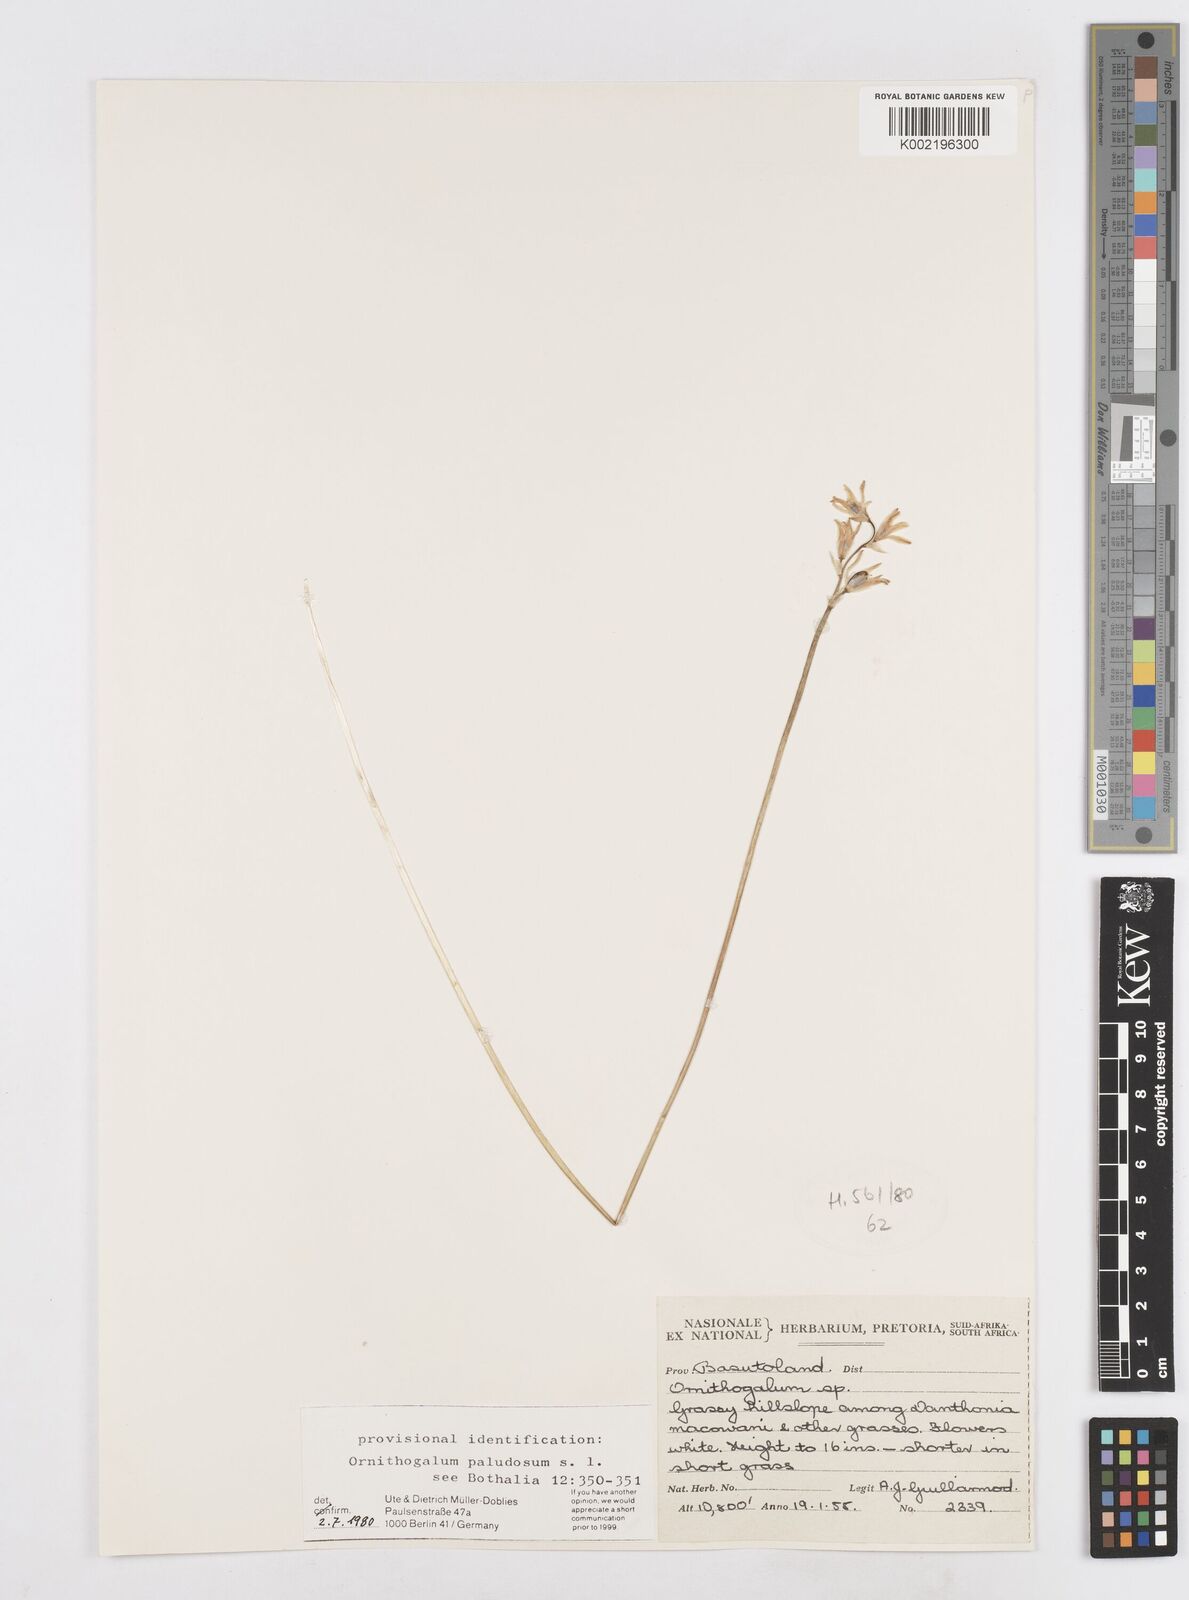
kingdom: Plantae
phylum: Tracheophyta
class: Liliopsida
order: Asparagales
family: Asparagaceae
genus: Ornithogalum
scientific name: Ornithogalum paludosum
